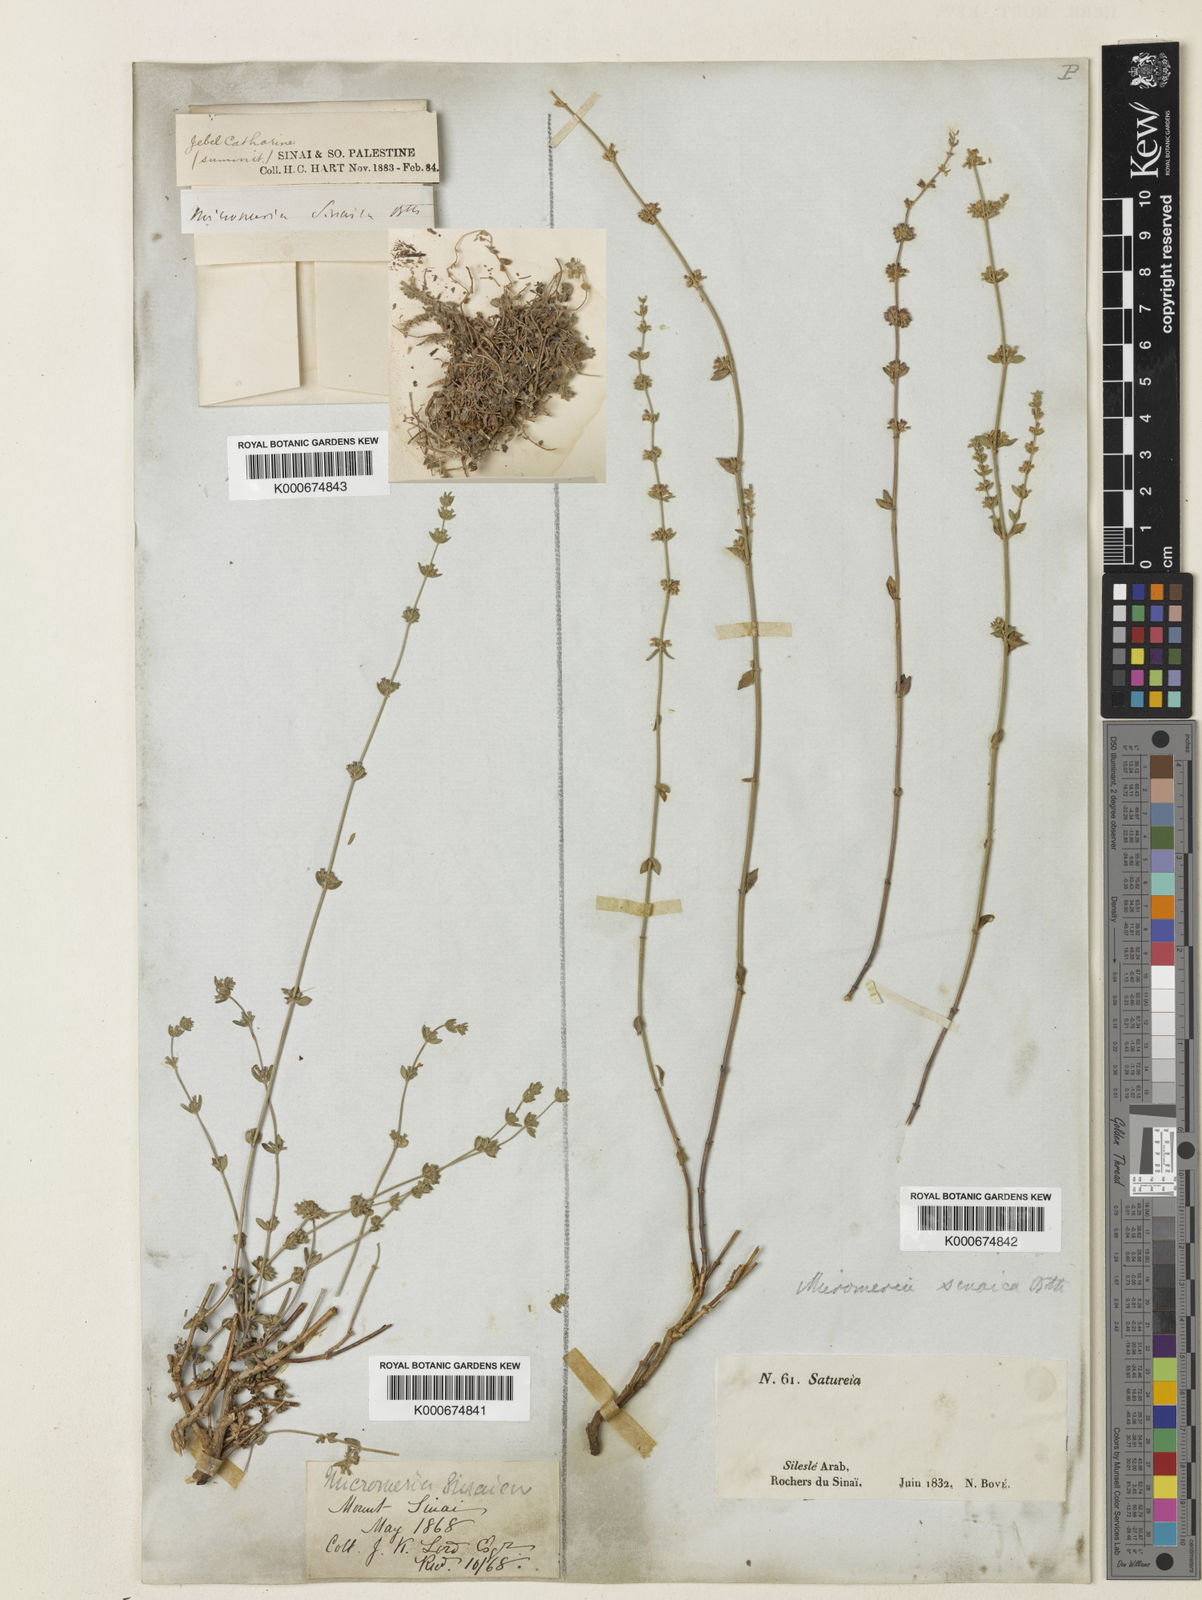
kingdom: Plantae
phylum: Tracheophyta
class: Magnoliopsida
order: Lamiales
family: Lamiaceae
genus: Micromeria
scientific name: Micromeria sinaica
